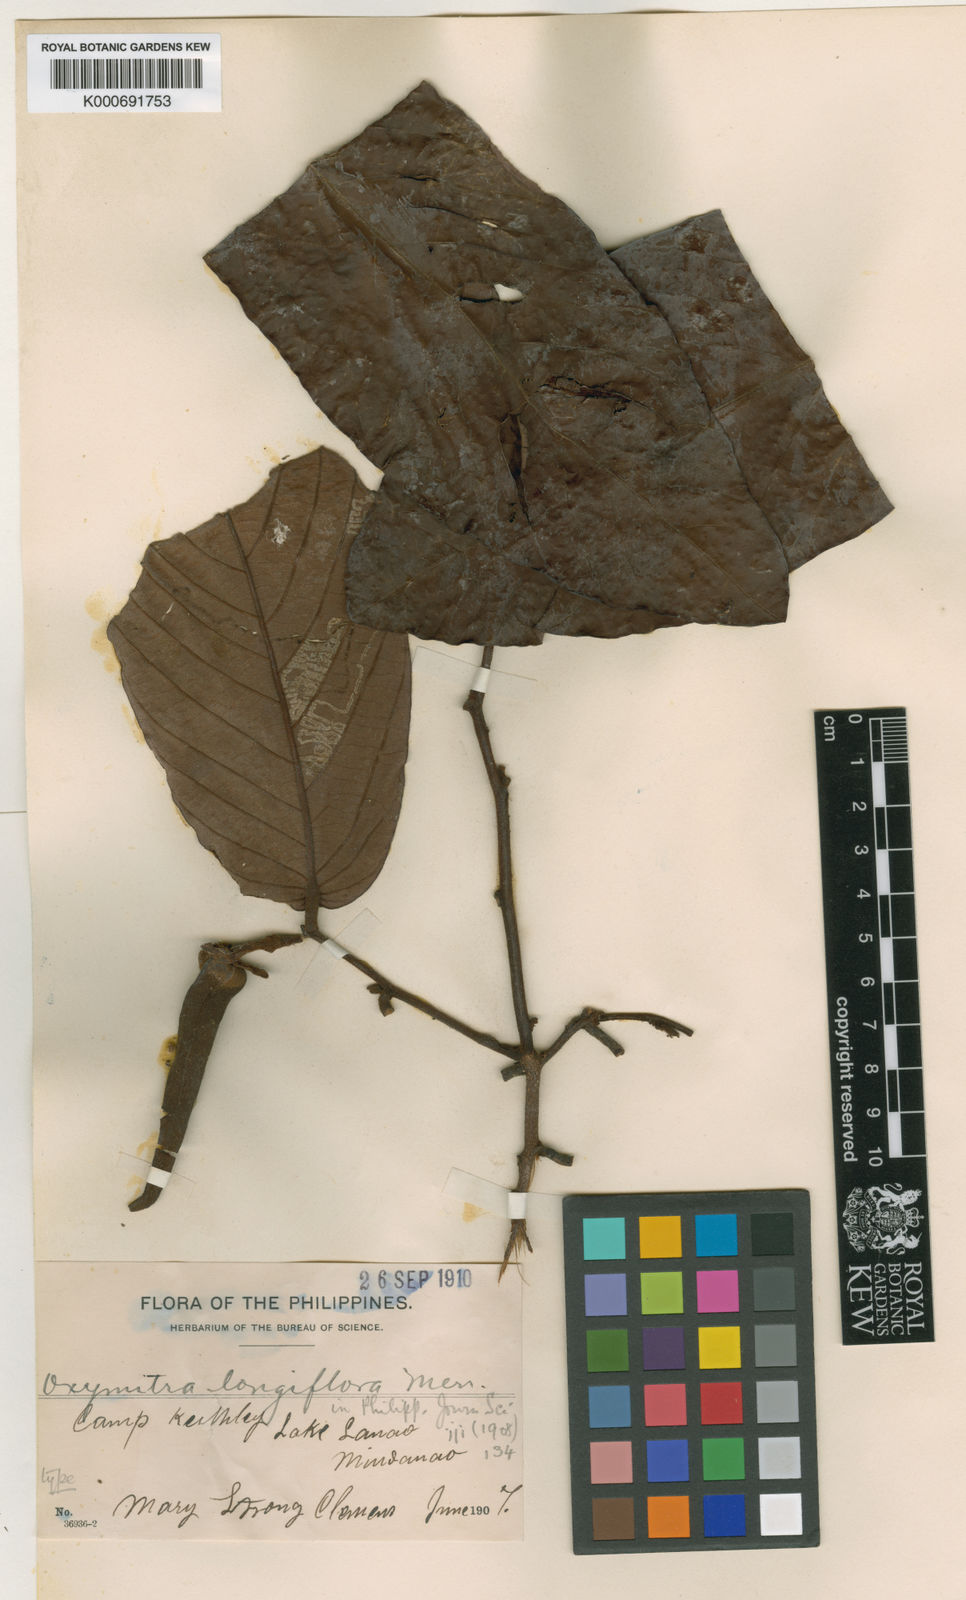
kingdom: Plantae
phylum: Tracheophyta
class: Magnoliopsida
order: Magnoliales
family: Annonaceae
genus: Friesodielsia
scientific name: Friesodielsia longiflora
